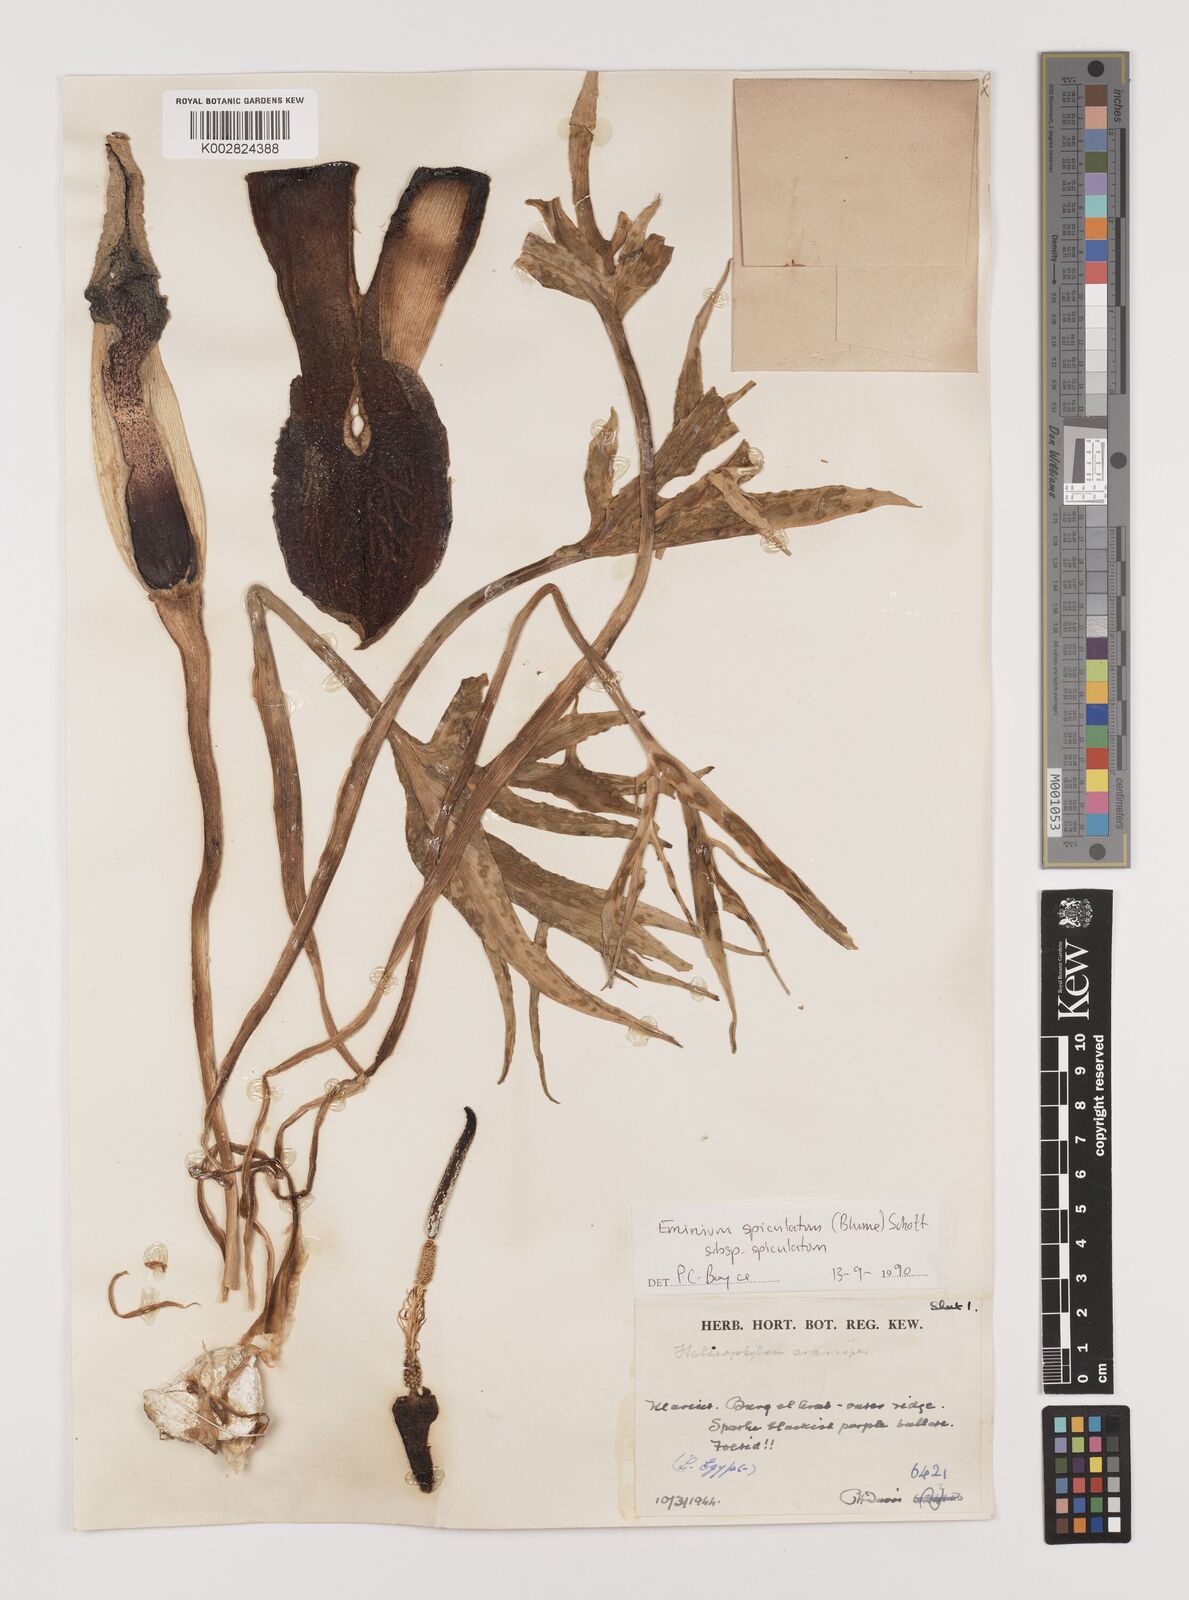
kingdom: Plantae
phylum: Tracheophyta
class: Liliopsida
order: Alismatales
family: Araceae
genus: Eminium
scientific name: Eminium spiculatum
